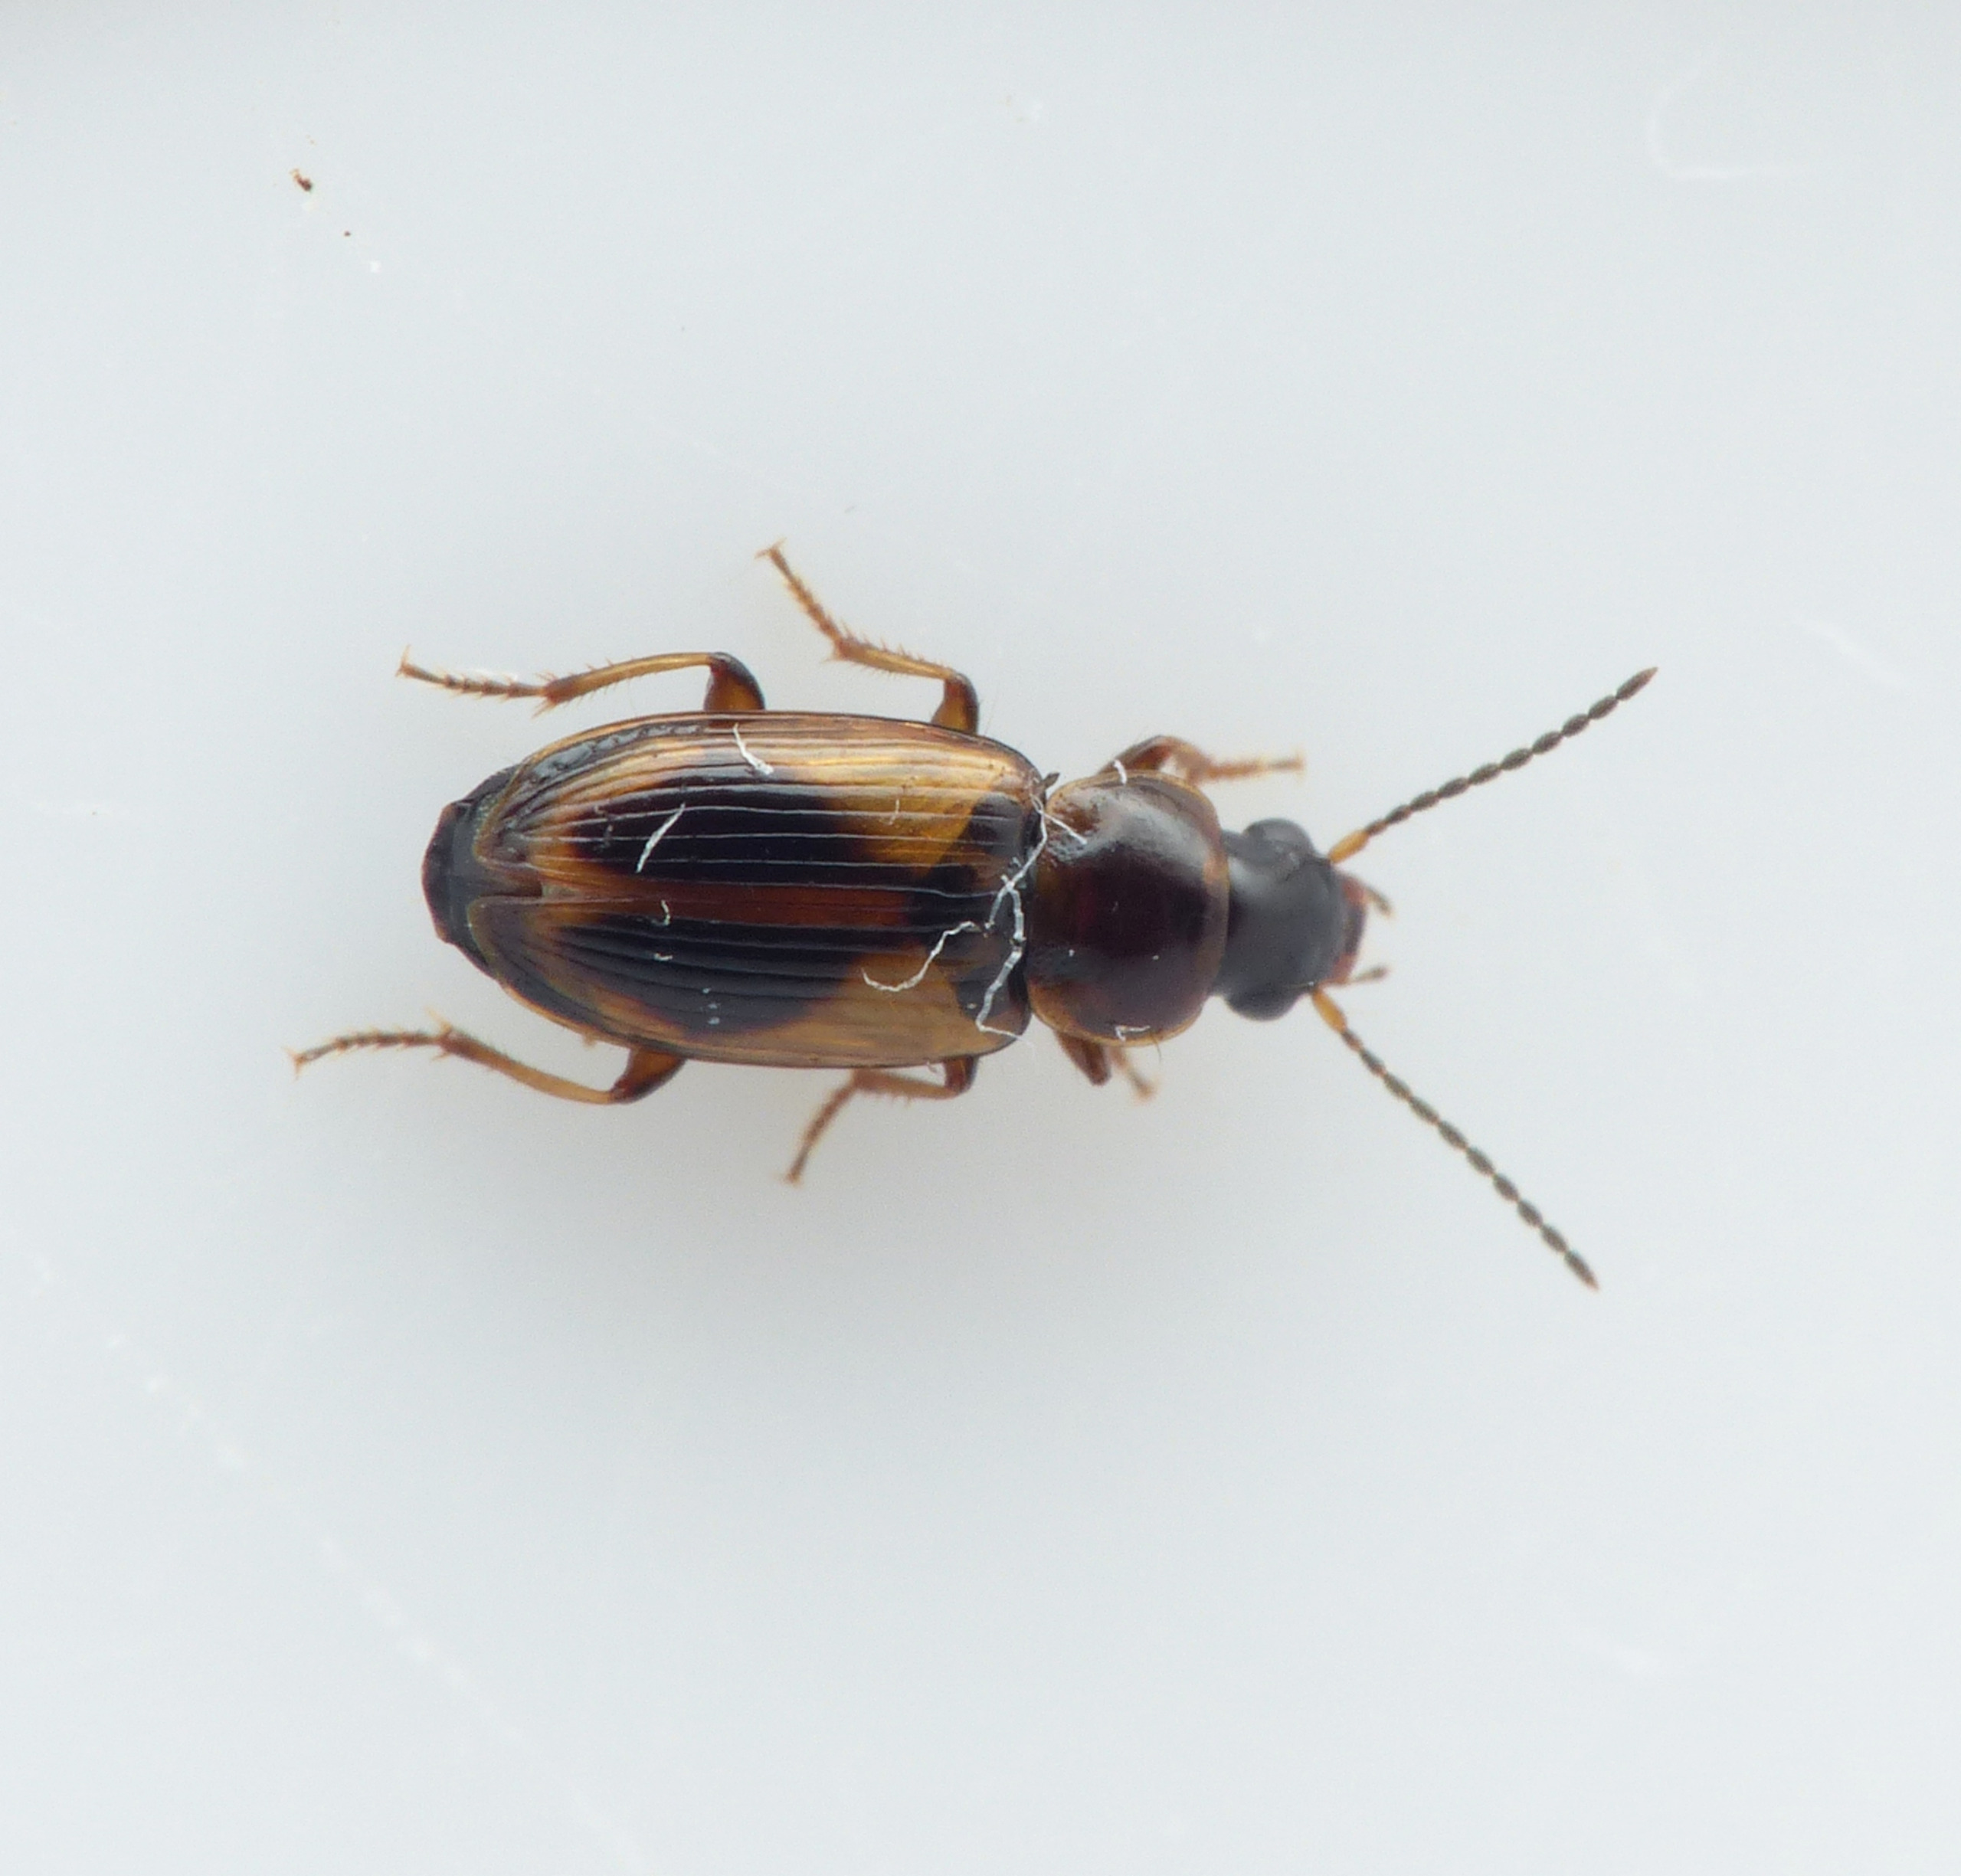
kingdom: Animalia
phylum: Arthropoda
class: Insecta
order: Coleoptera
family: Carabidae
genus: Acupalpus
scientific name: Acupalpus parvulus
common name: Bredrygget moseløber
